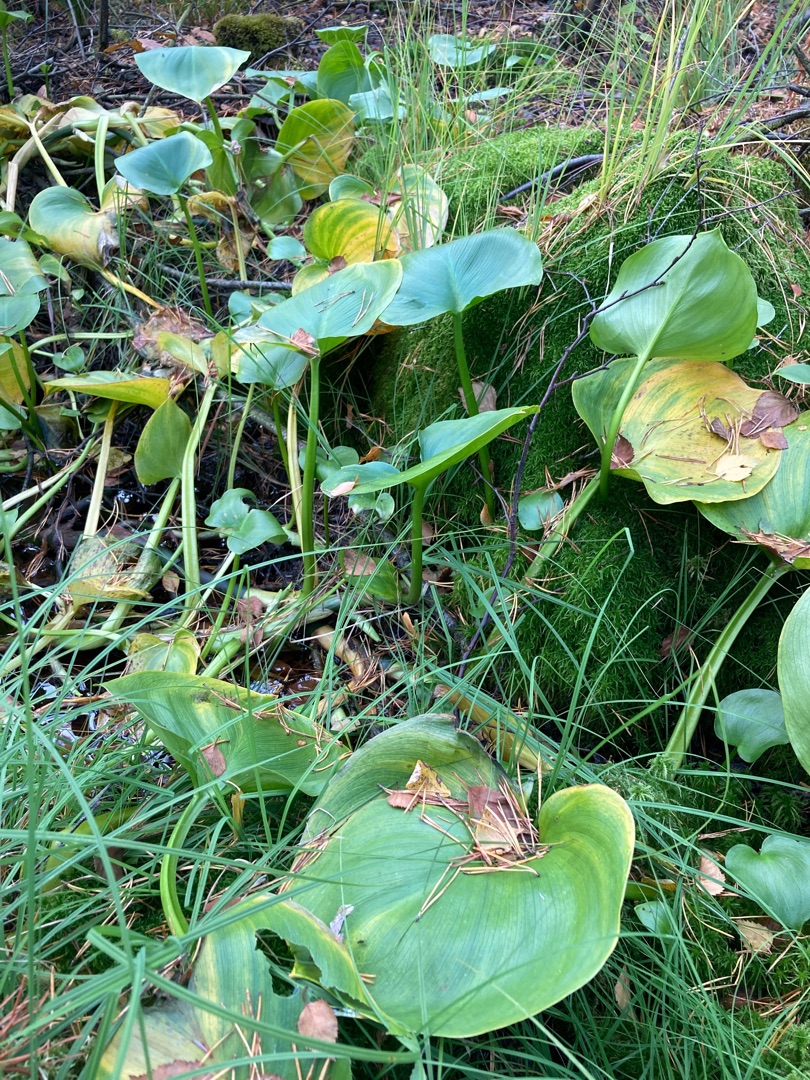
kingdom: Plantae
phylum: Tracheophyta
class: Liliopsida
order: Alismatales
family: Araceae
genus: Calla
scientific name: Calla palustris
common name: Kærmysse
